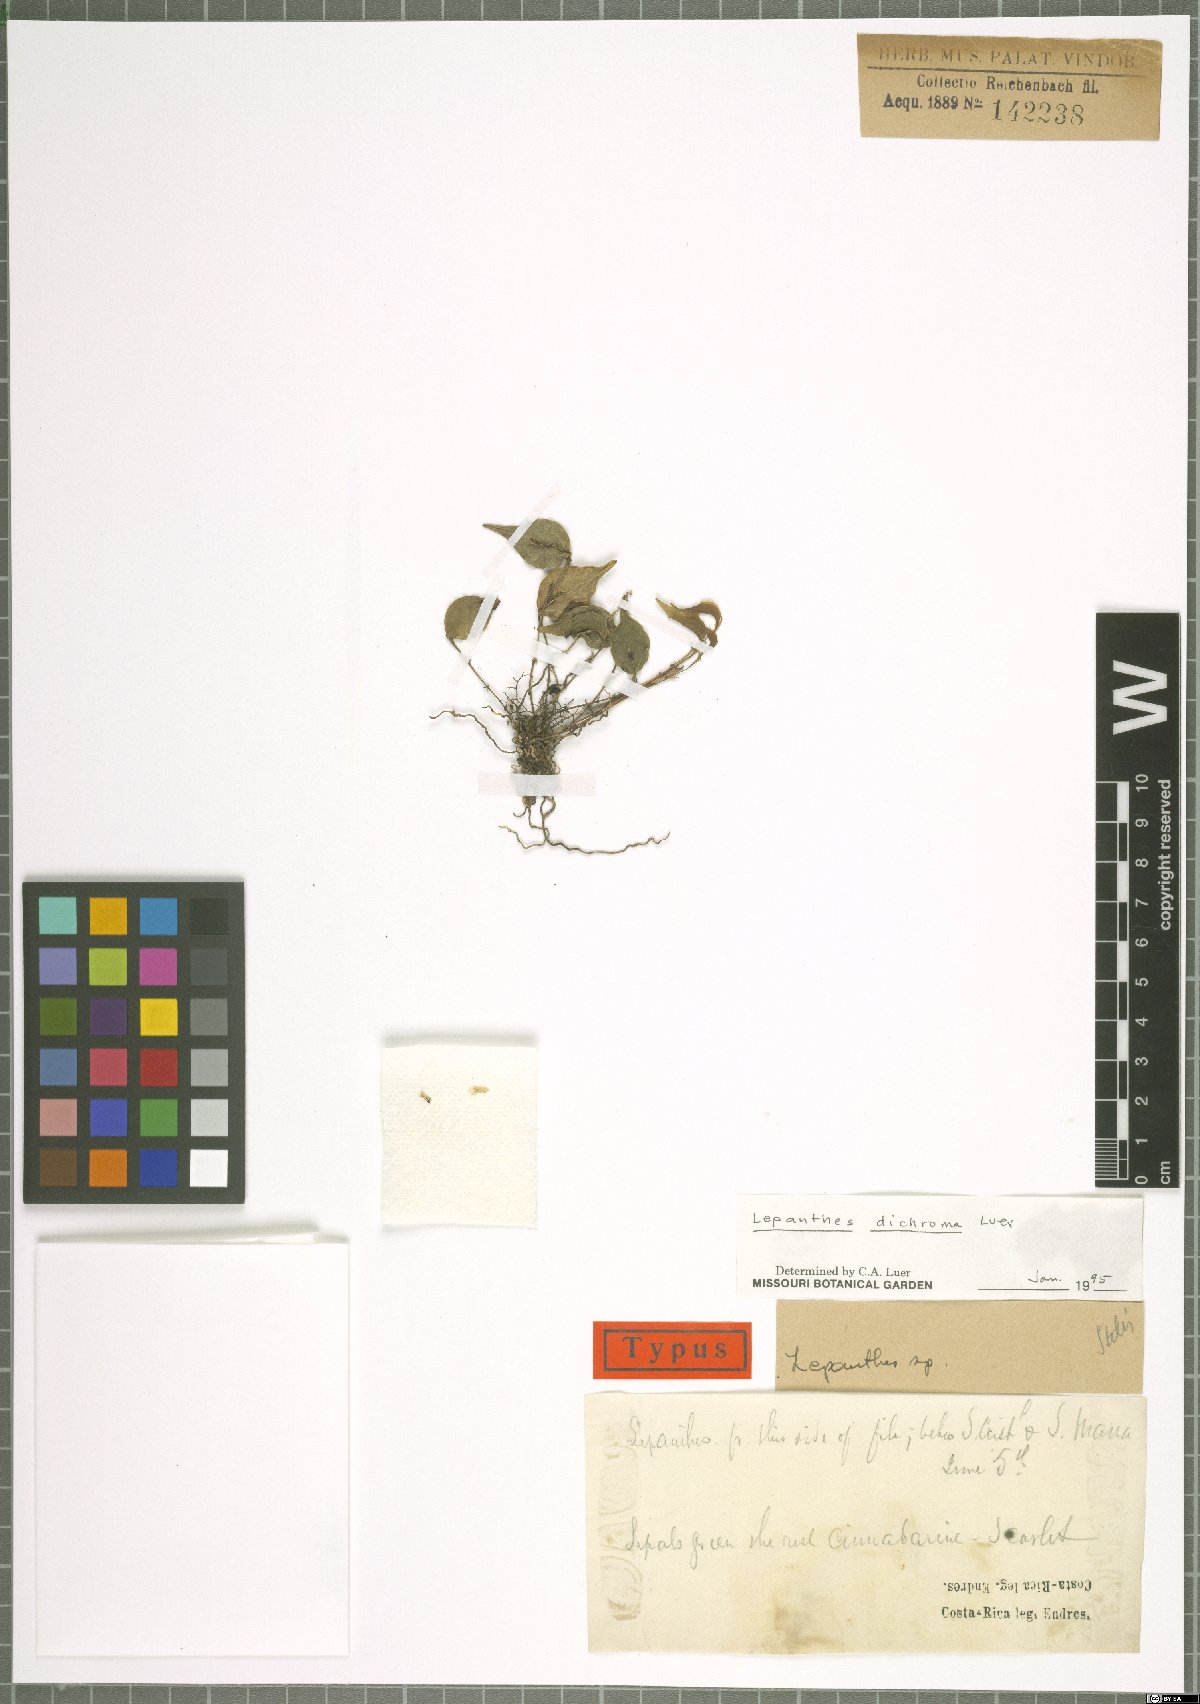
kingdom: Plantae
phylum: Tracheophyta
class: Liliopsida
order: Asparagales
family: Orchidaceae
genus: Lepanthes
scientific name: Lepanthes dichroma
